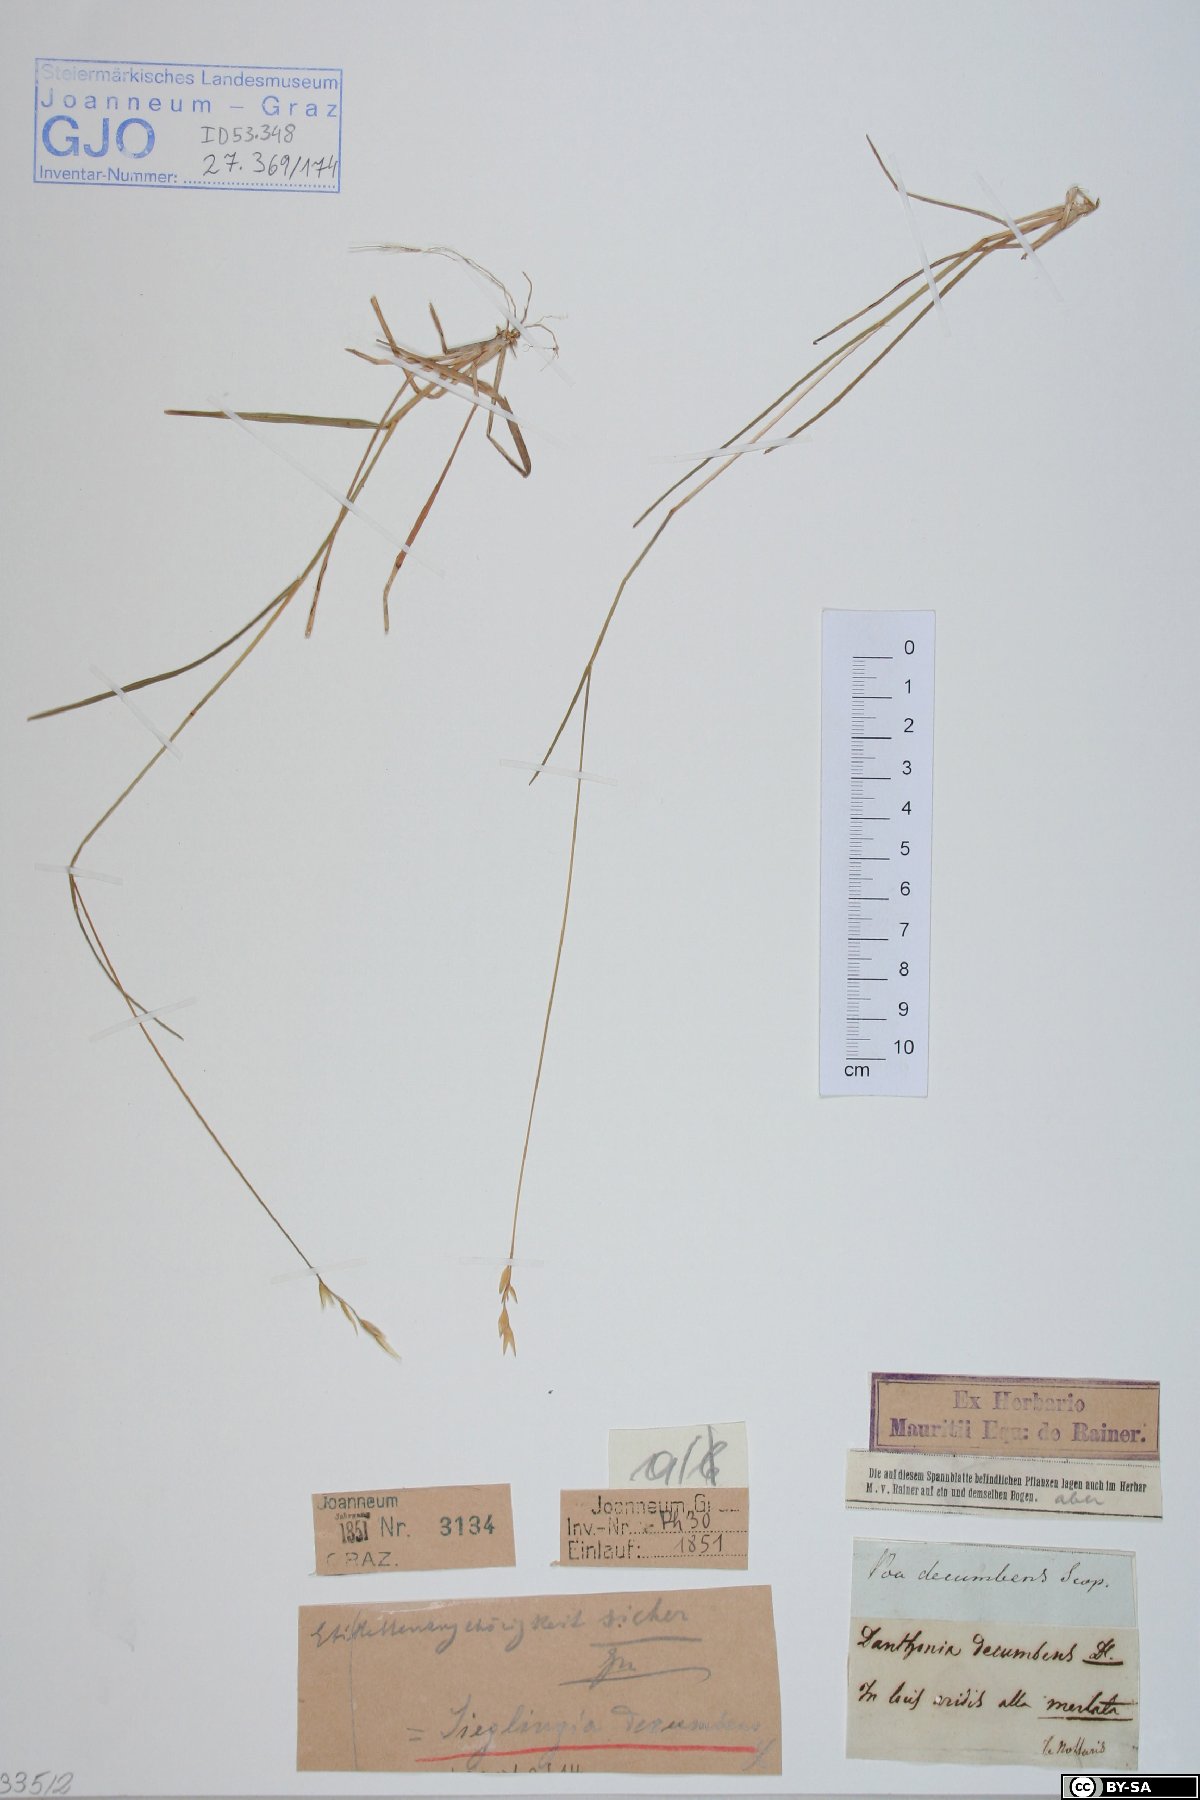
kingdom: Plantae
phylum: Tracheophyta
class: Liliopsida
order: Poales
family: Poaceae
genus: Danthonia
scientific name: Danthonia decumbens
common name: Common heathgrass
